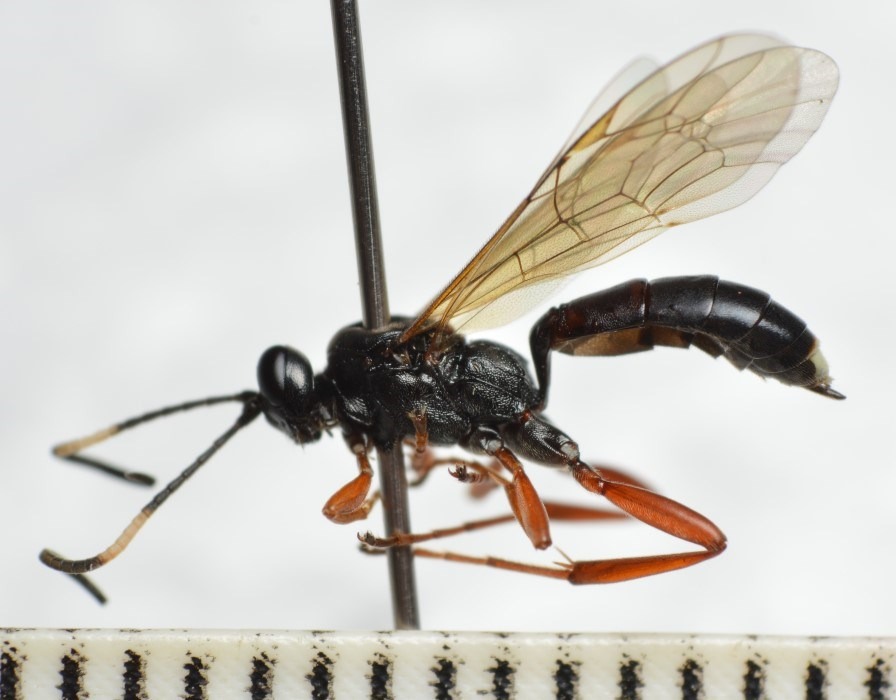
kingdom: Animalia
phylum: Arthropoda
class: Insecta
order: Hymenoptera
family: Ichneumonidae
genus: Aoplus
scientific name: Aoplus ochropis
